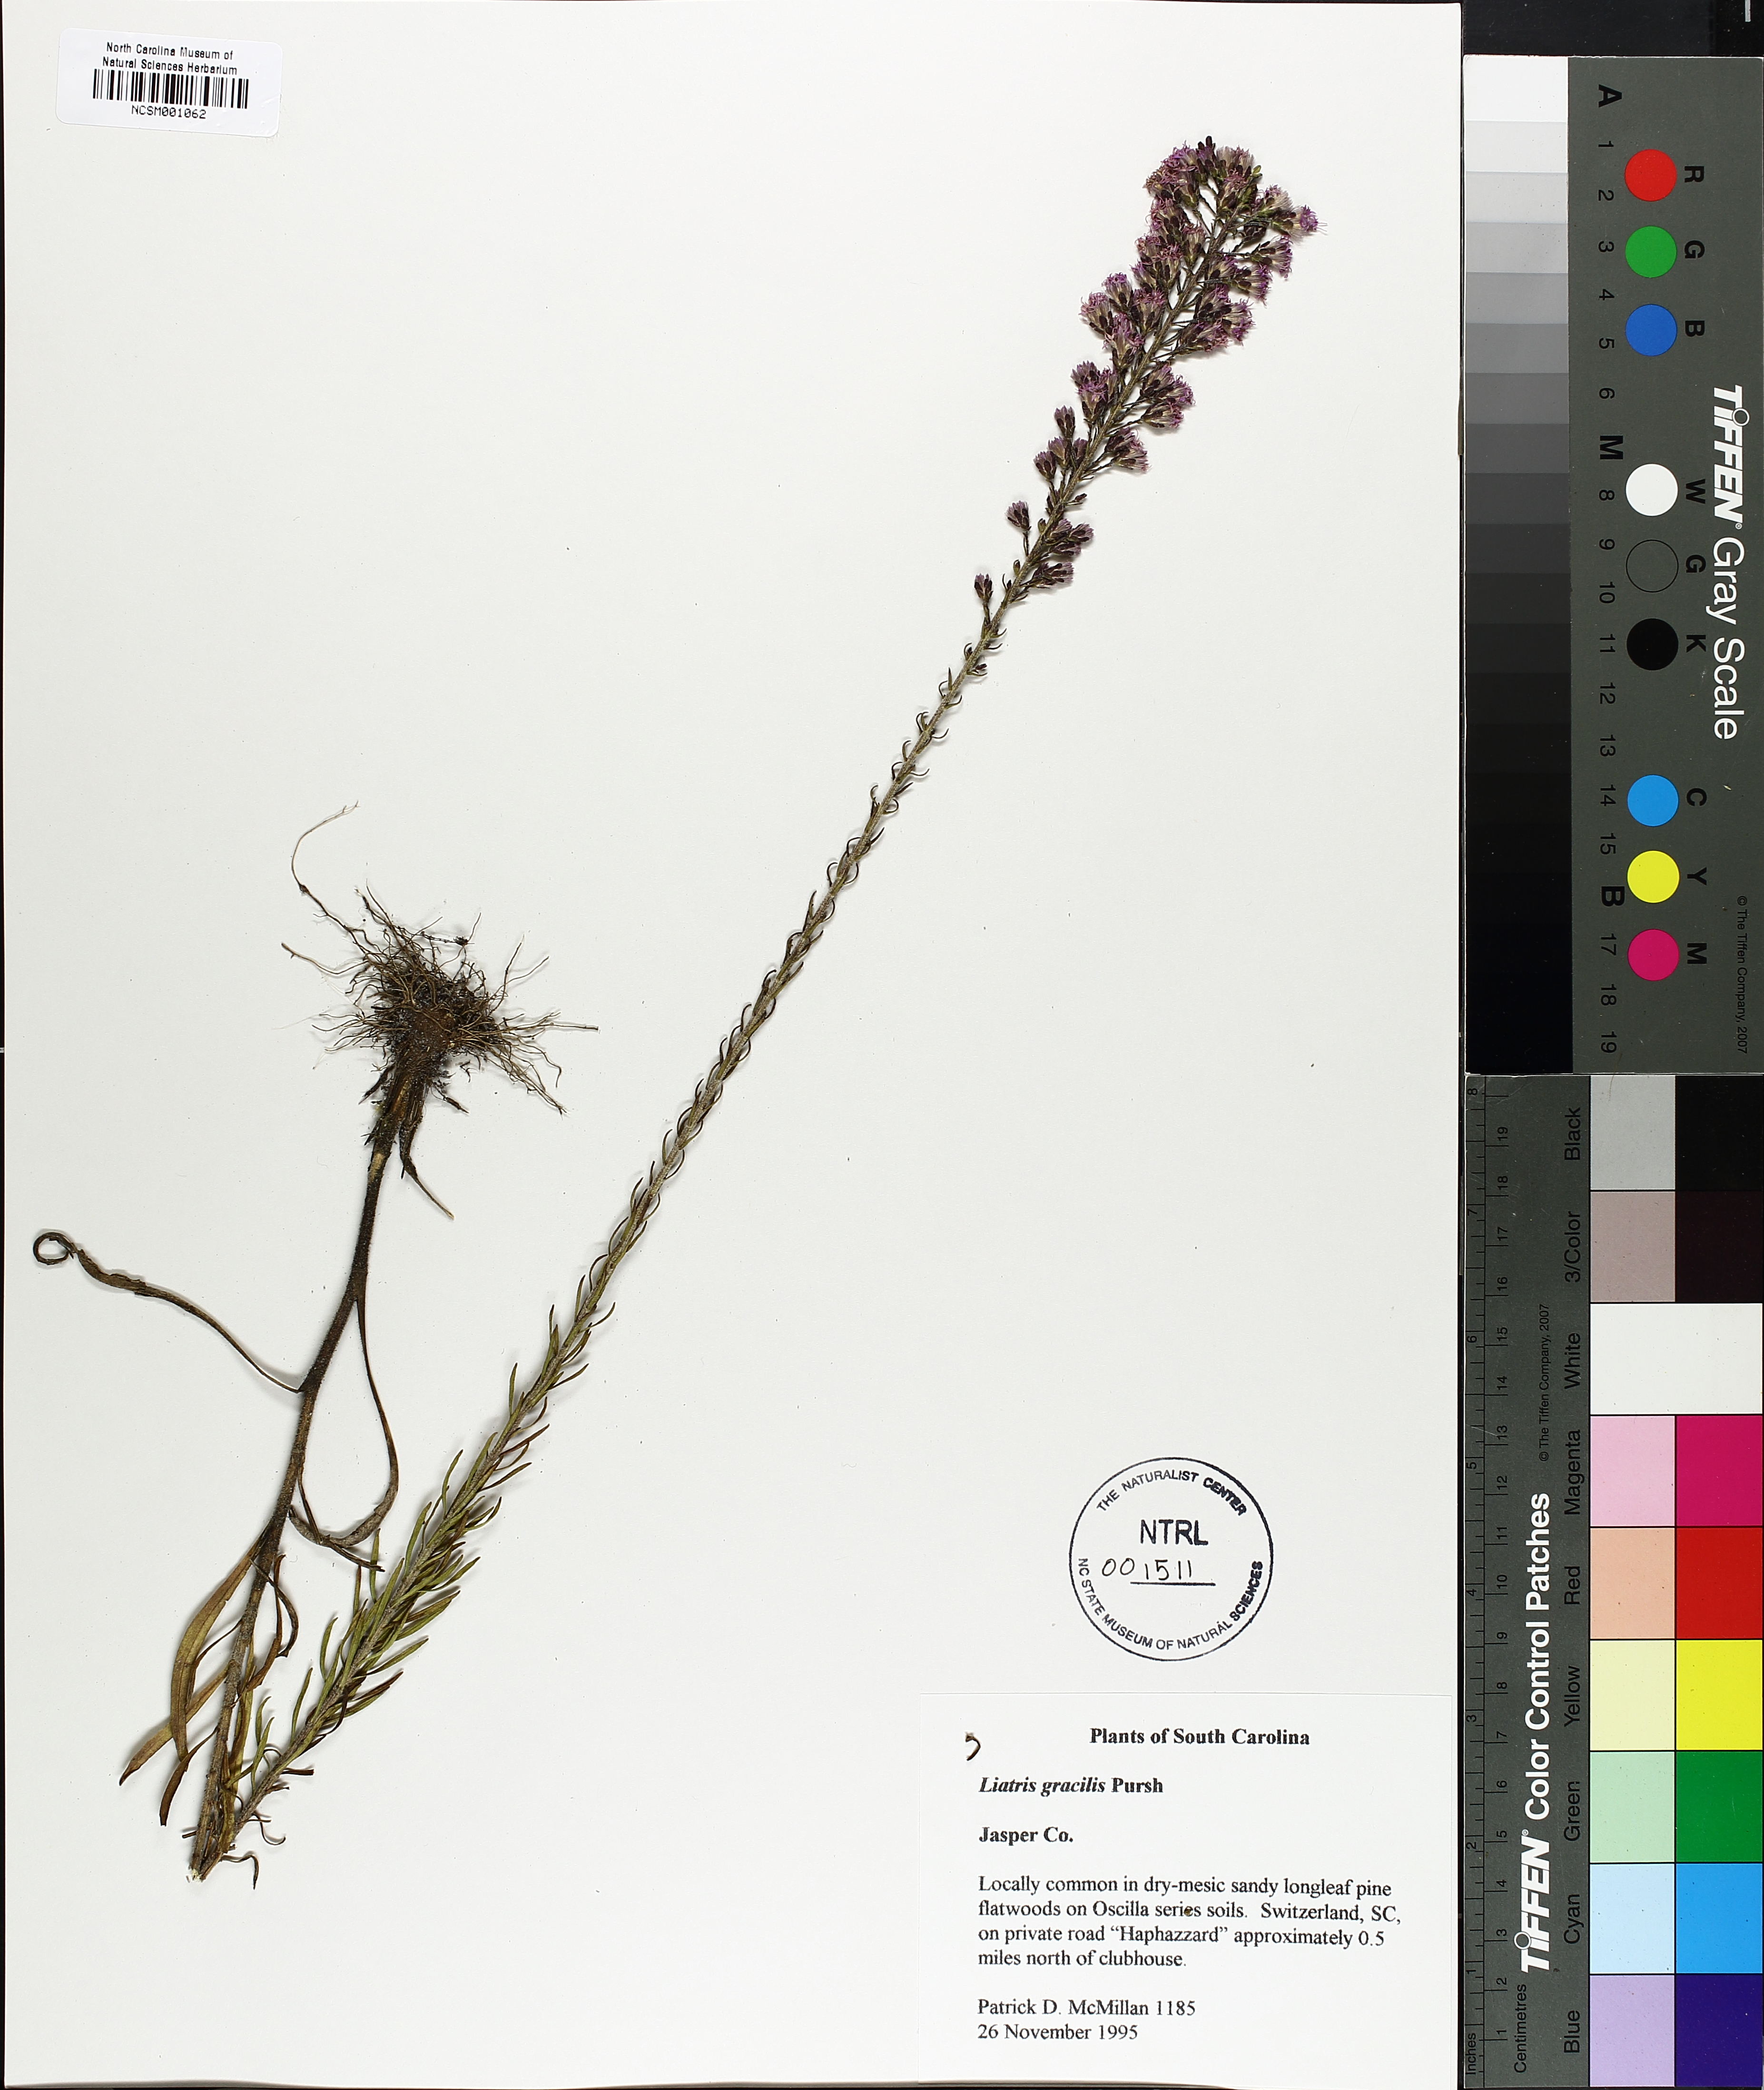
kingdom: Plantae
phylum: Tracheophyta
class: Magnoliopsida
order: Asterales
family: Asteraceae
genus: Liatris
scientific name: Liatris gracilis
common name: Slender gayfeather
